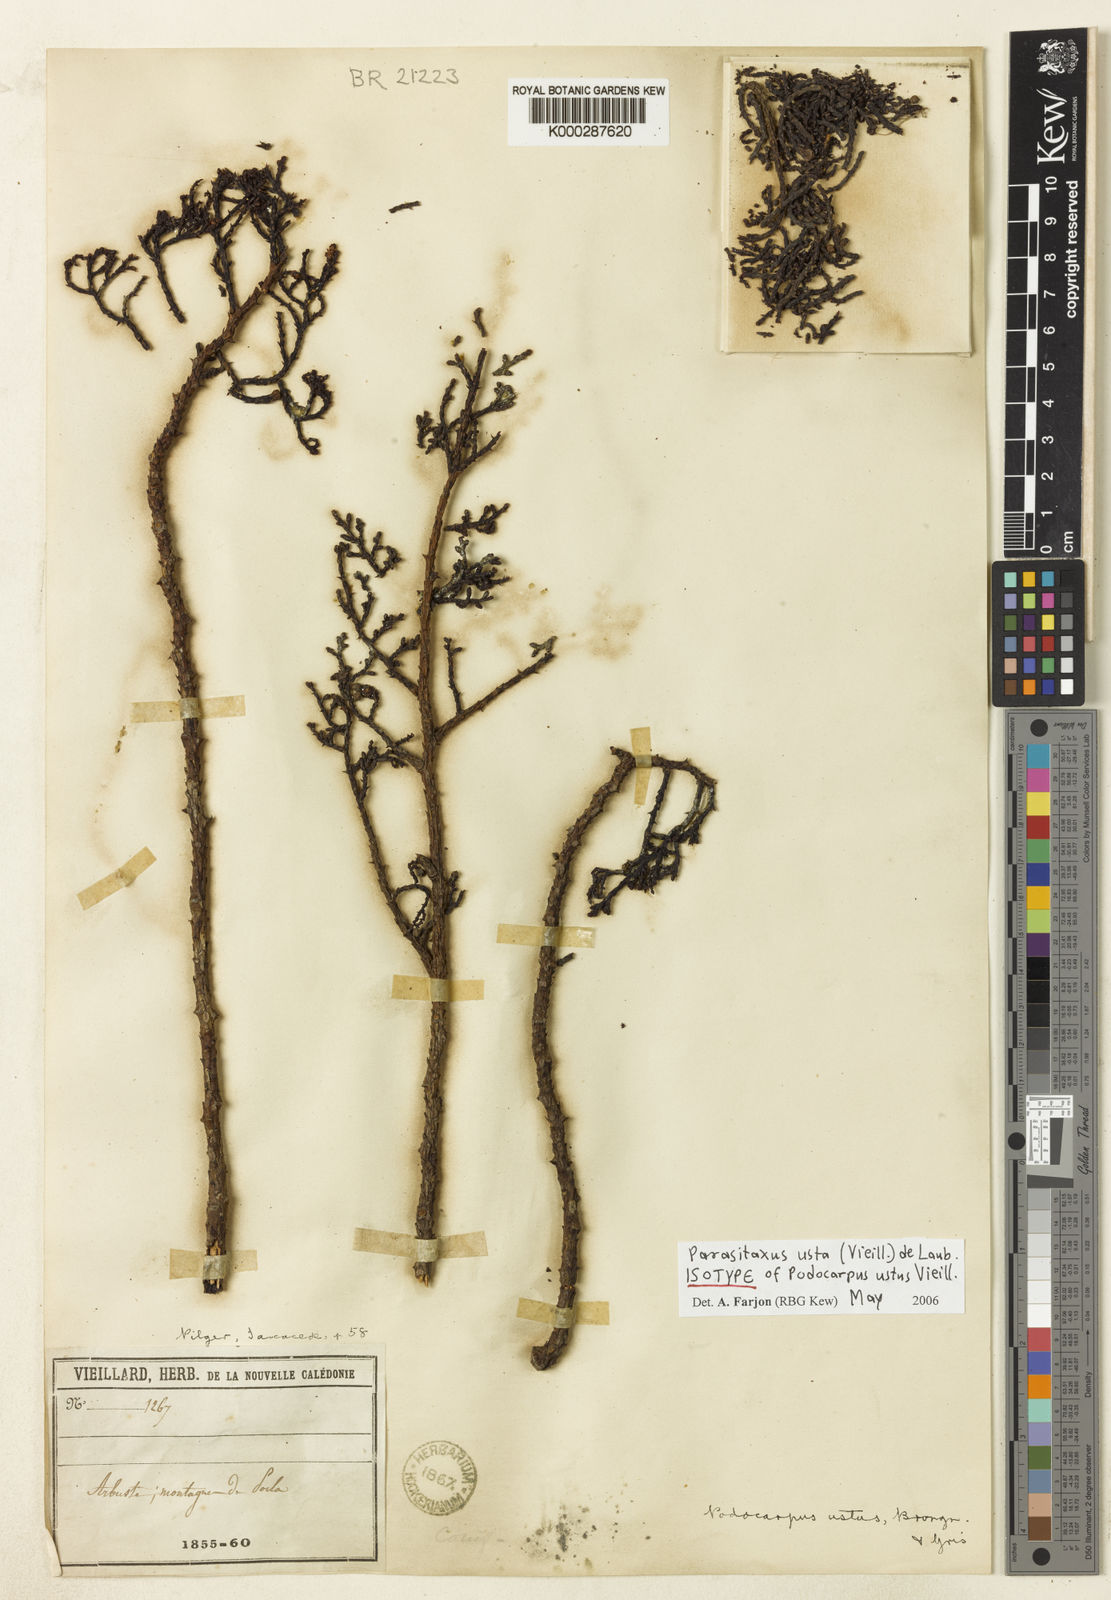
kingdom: Plantae
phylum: Tracheophyta
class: Pinopsida
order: Pinales
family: Podocarpaceae
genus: Parasitaxus
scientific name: Parasitaxus usta
